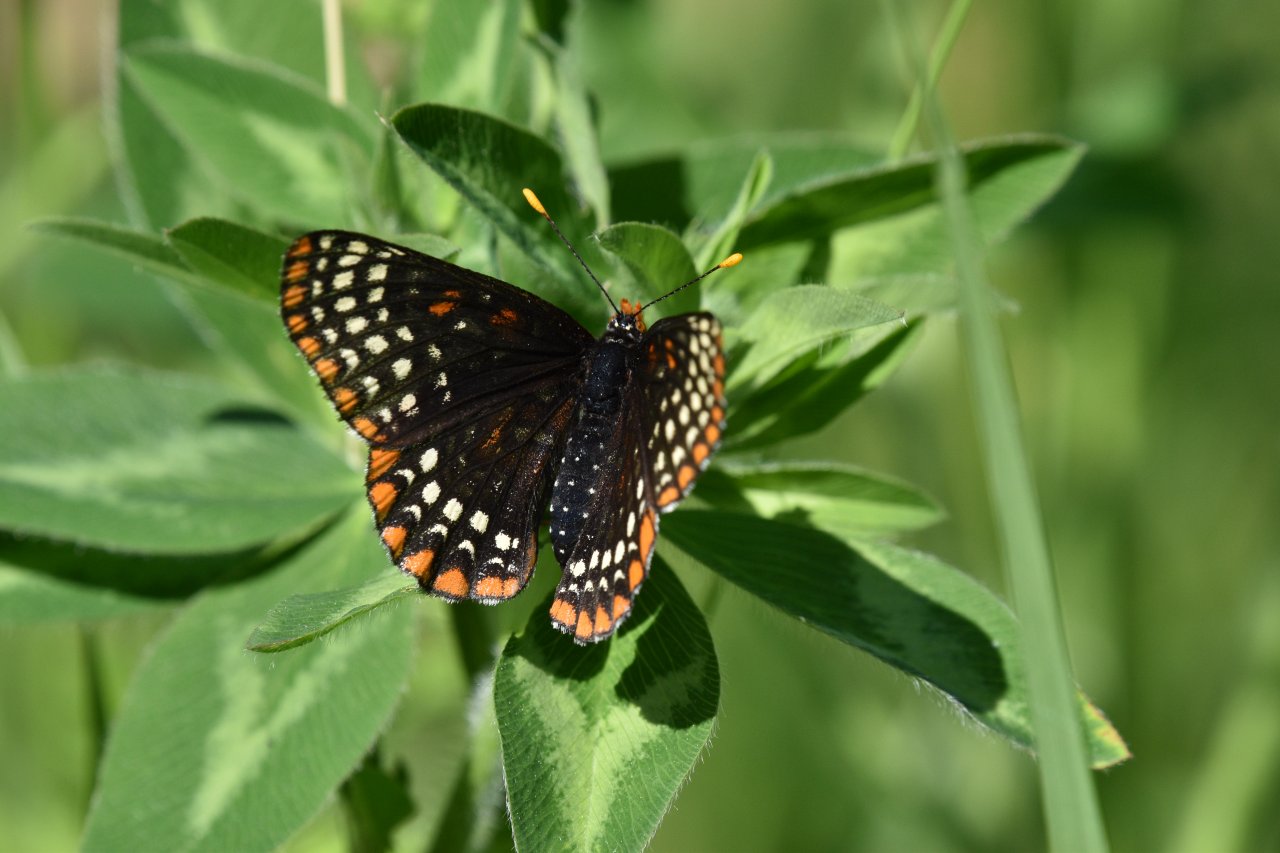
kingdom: Animalia
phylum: Arthropoda
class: Insecta
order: Lepidoptera
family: Nymphalidae
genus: Euphydryas
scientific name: Euphydryas phaeton
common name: Baltimore Checkerspot
